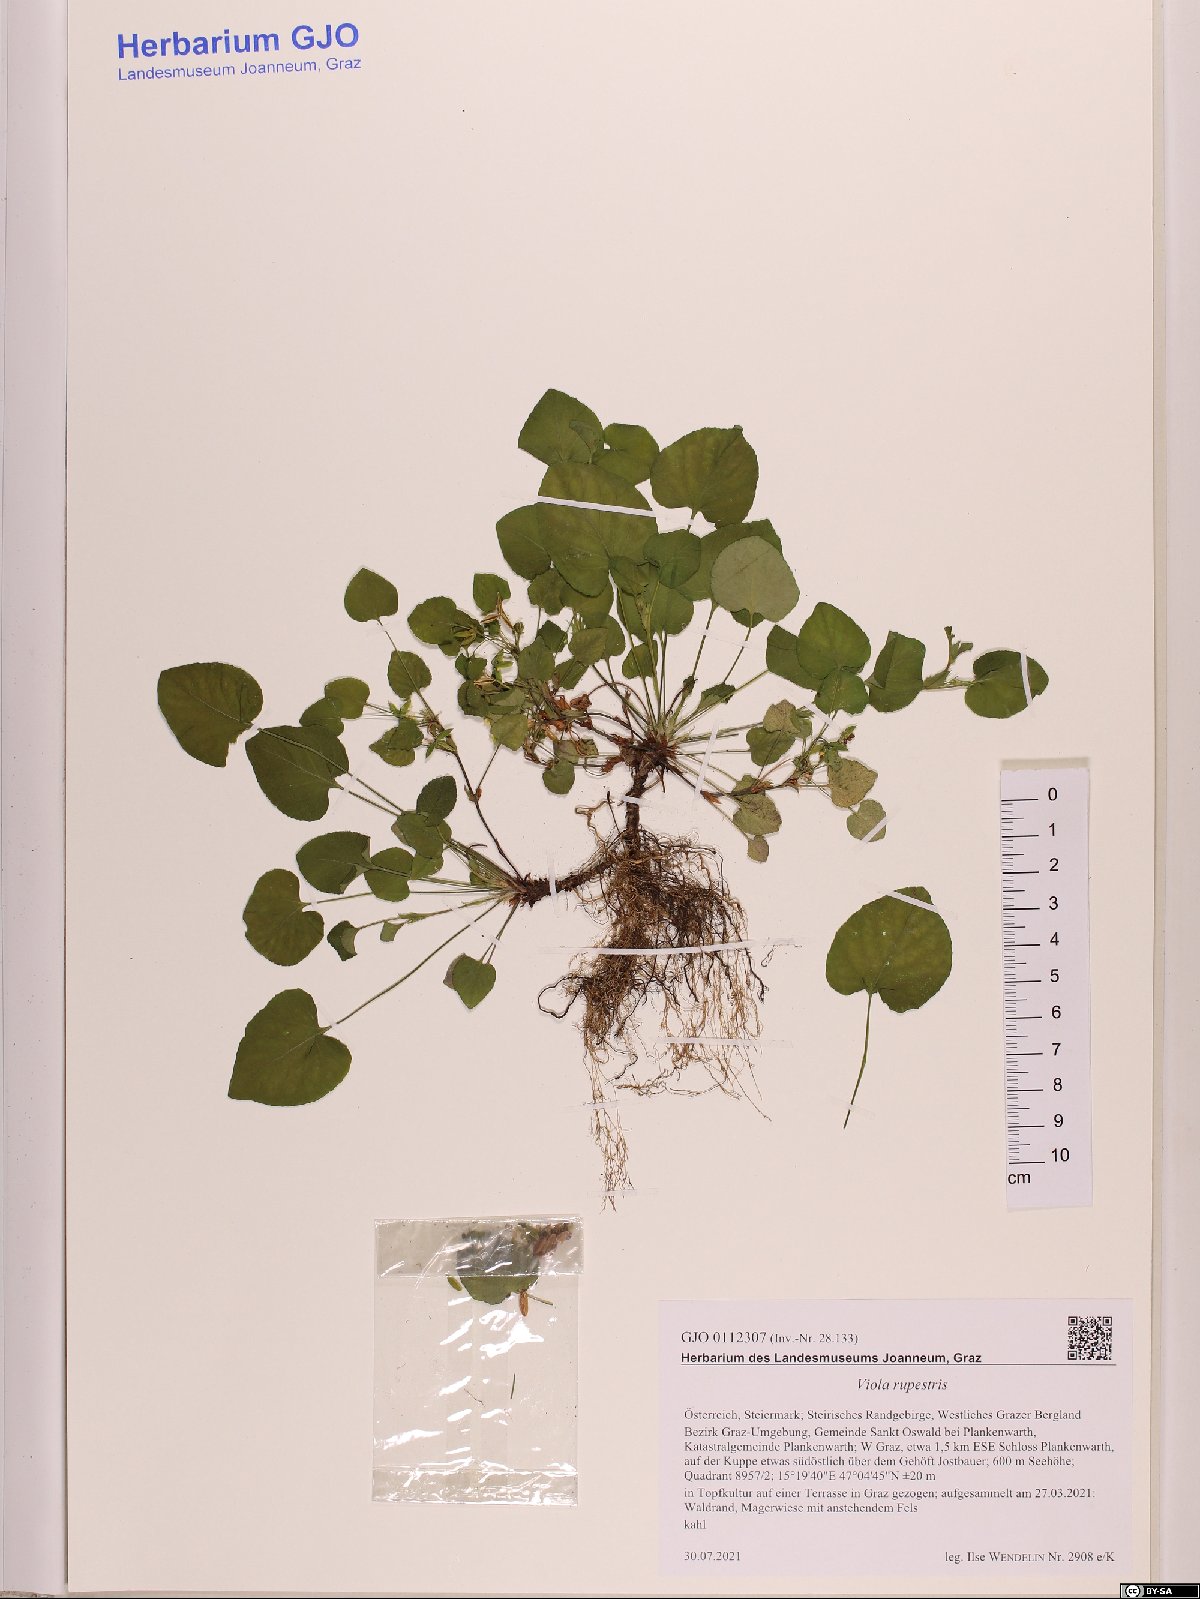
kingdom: Plantae
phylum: Tracheophyta
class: Magnoliopsida
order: Malpighiales
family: Violaceae
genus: Viola
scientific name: Viola rupestris
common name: Teesdale violet
